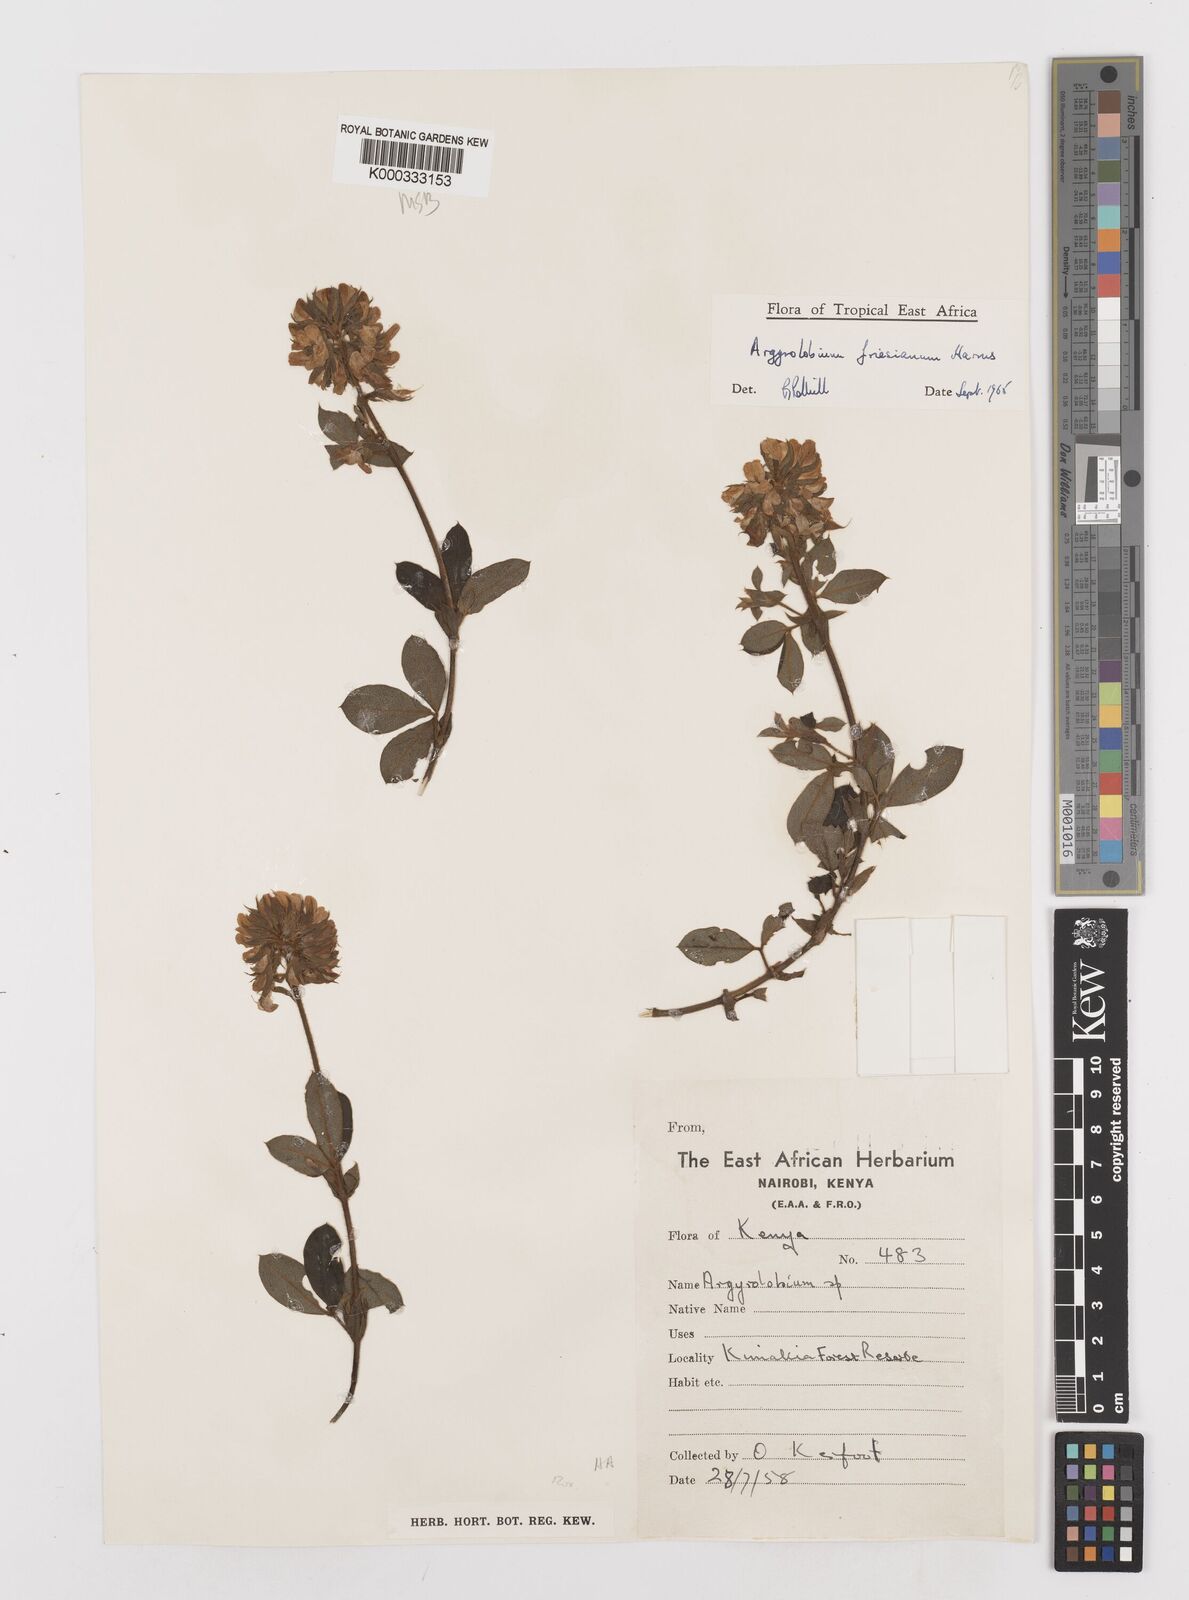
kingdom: Plantae
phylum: Tracheophyta
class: Magnoliopsida
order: Fabales
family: Fabaceae
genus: Argyrolobium
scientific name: Argyrolobium friesianum
